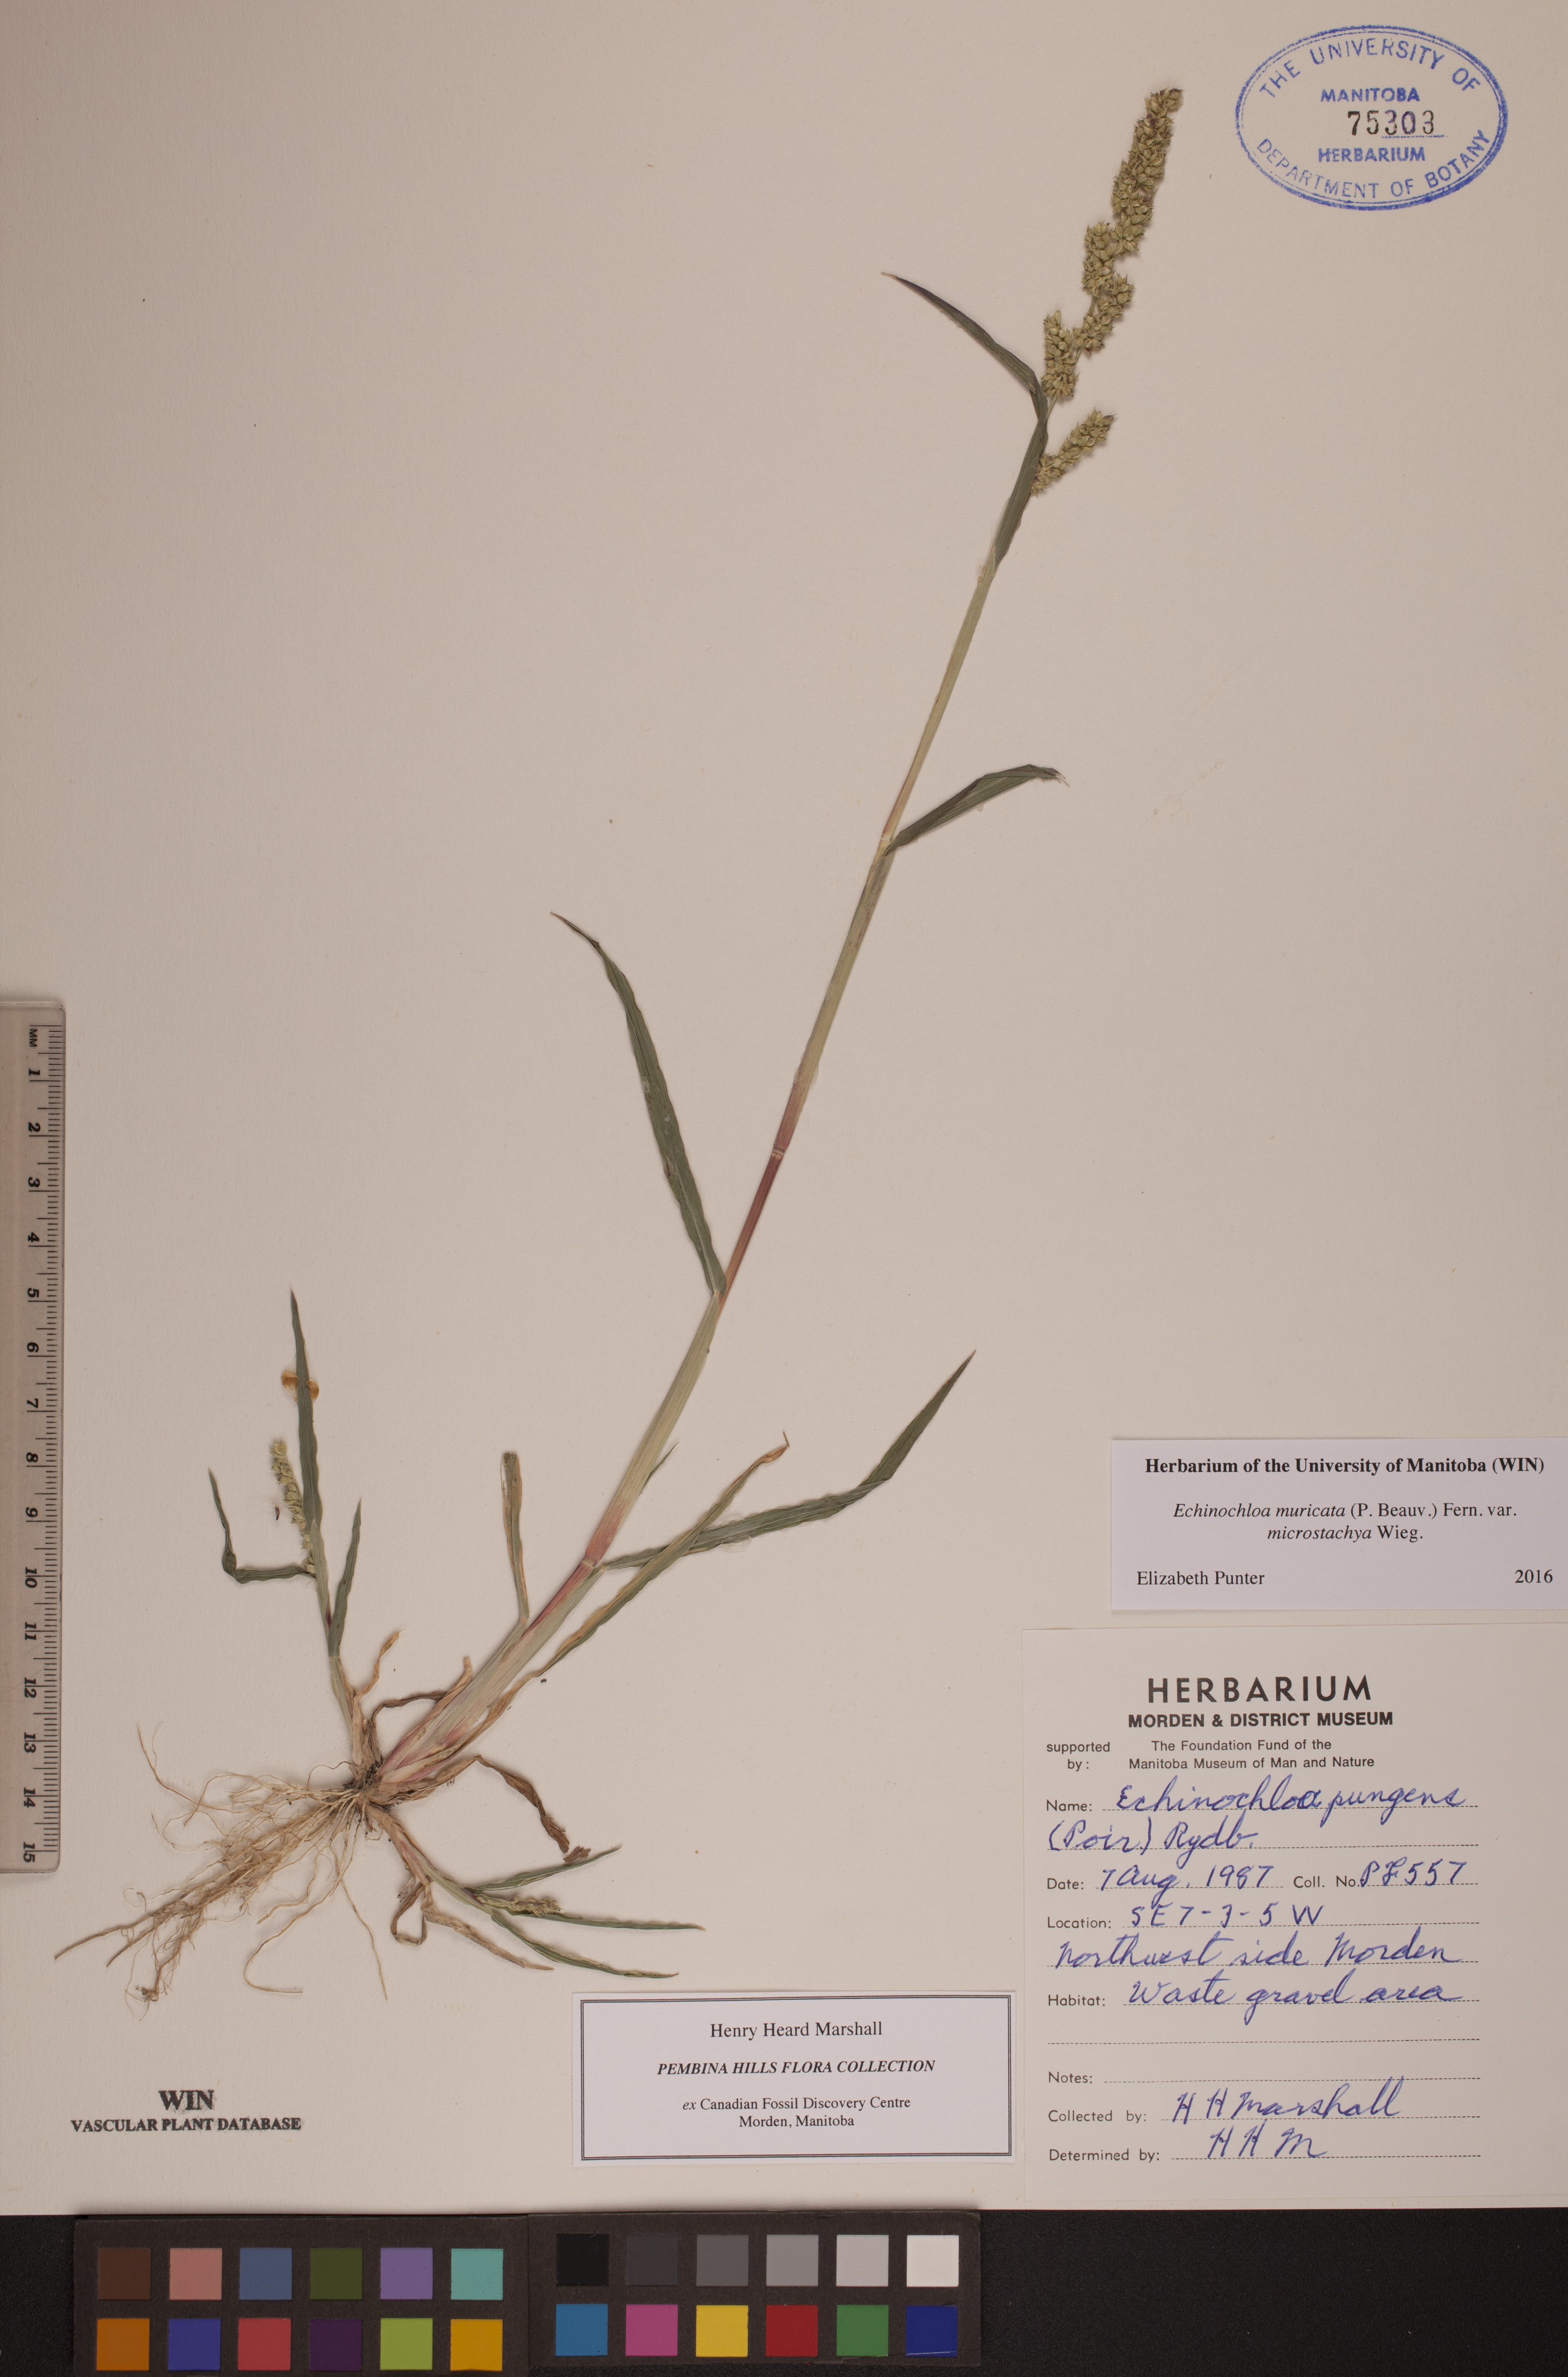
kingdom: Plantae
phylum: Tracheophyta
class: Liliopsida
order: Poales
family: Poaceae
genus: Echinochloa
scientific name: Echinochloa muricata
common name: American barnyard grass
